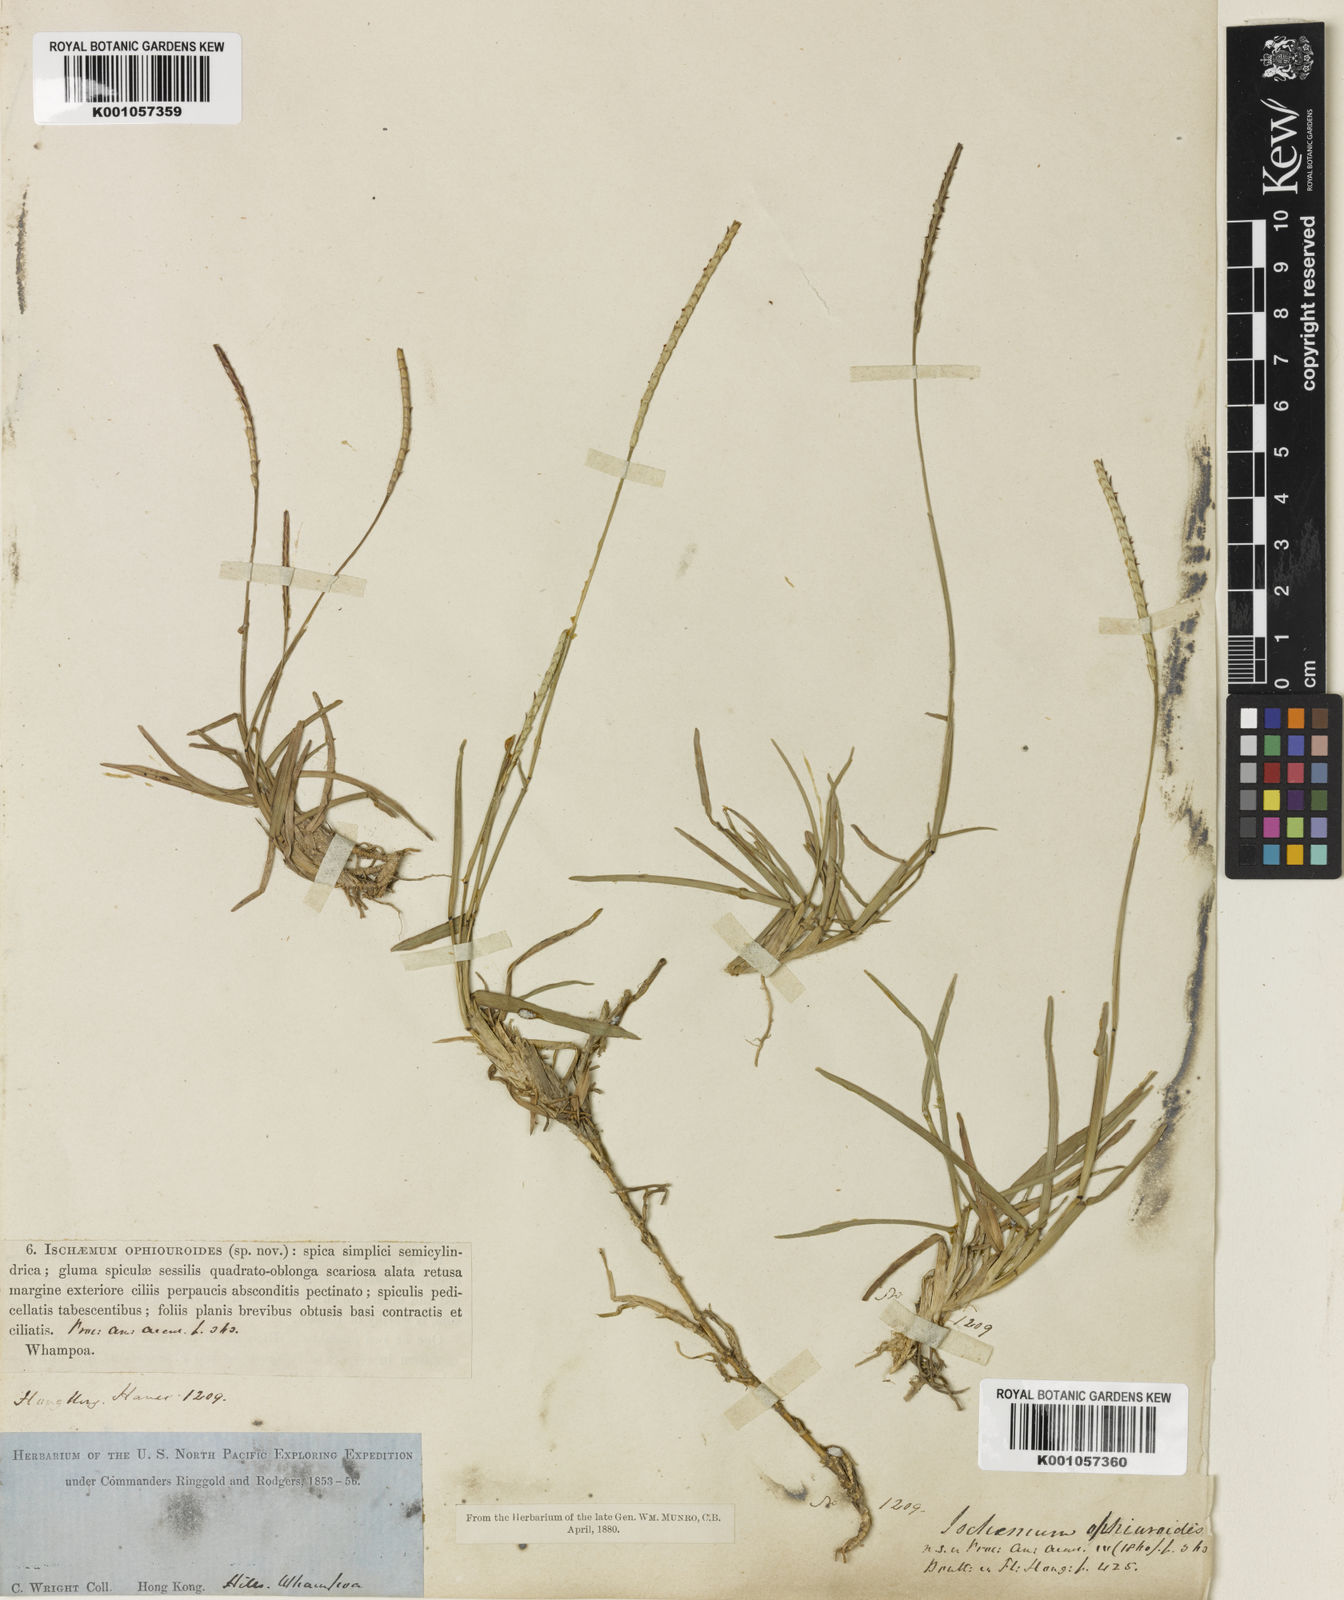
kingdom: Plantae
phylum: Tracheophyta
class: Liliopsida
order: Poales
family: Poaceae
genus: Eremochloa
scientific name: Eremochloa ophiuroides
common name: Centipede grass
